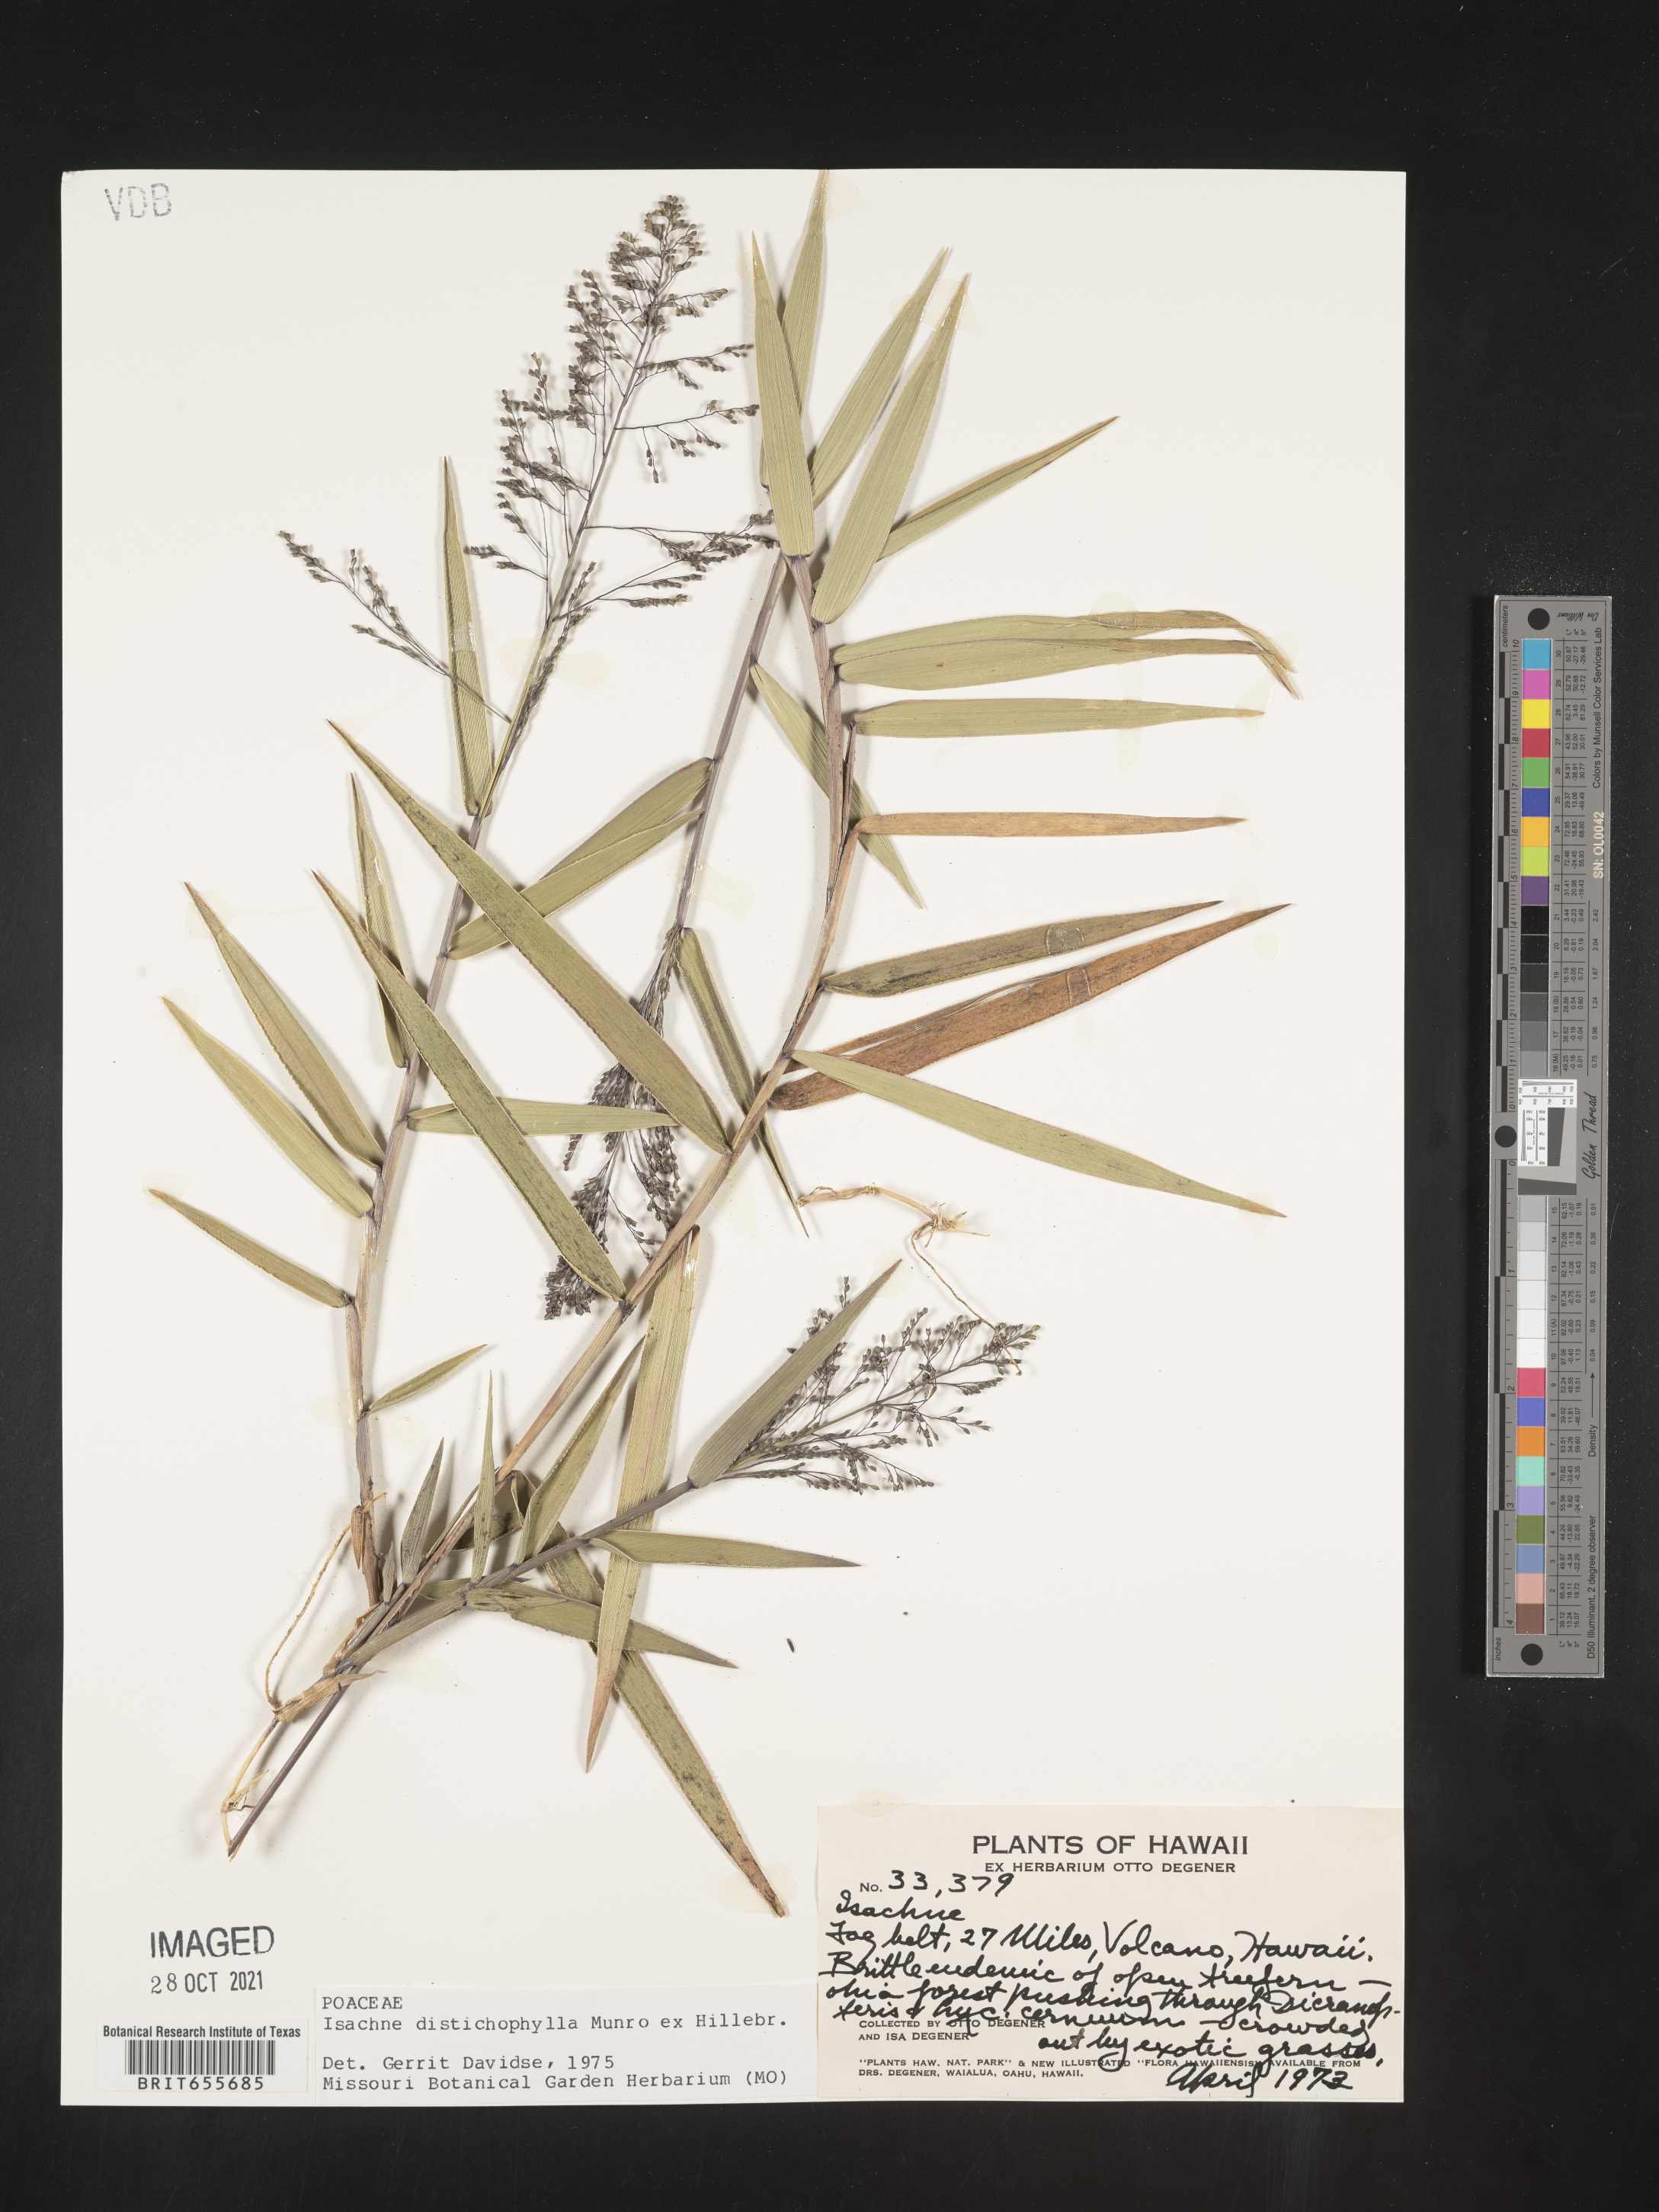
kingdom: Plantae
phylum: Tracheophyta
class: Liliopsida
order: Poales
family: Poaceae
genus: Isachne
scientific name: Isachne
